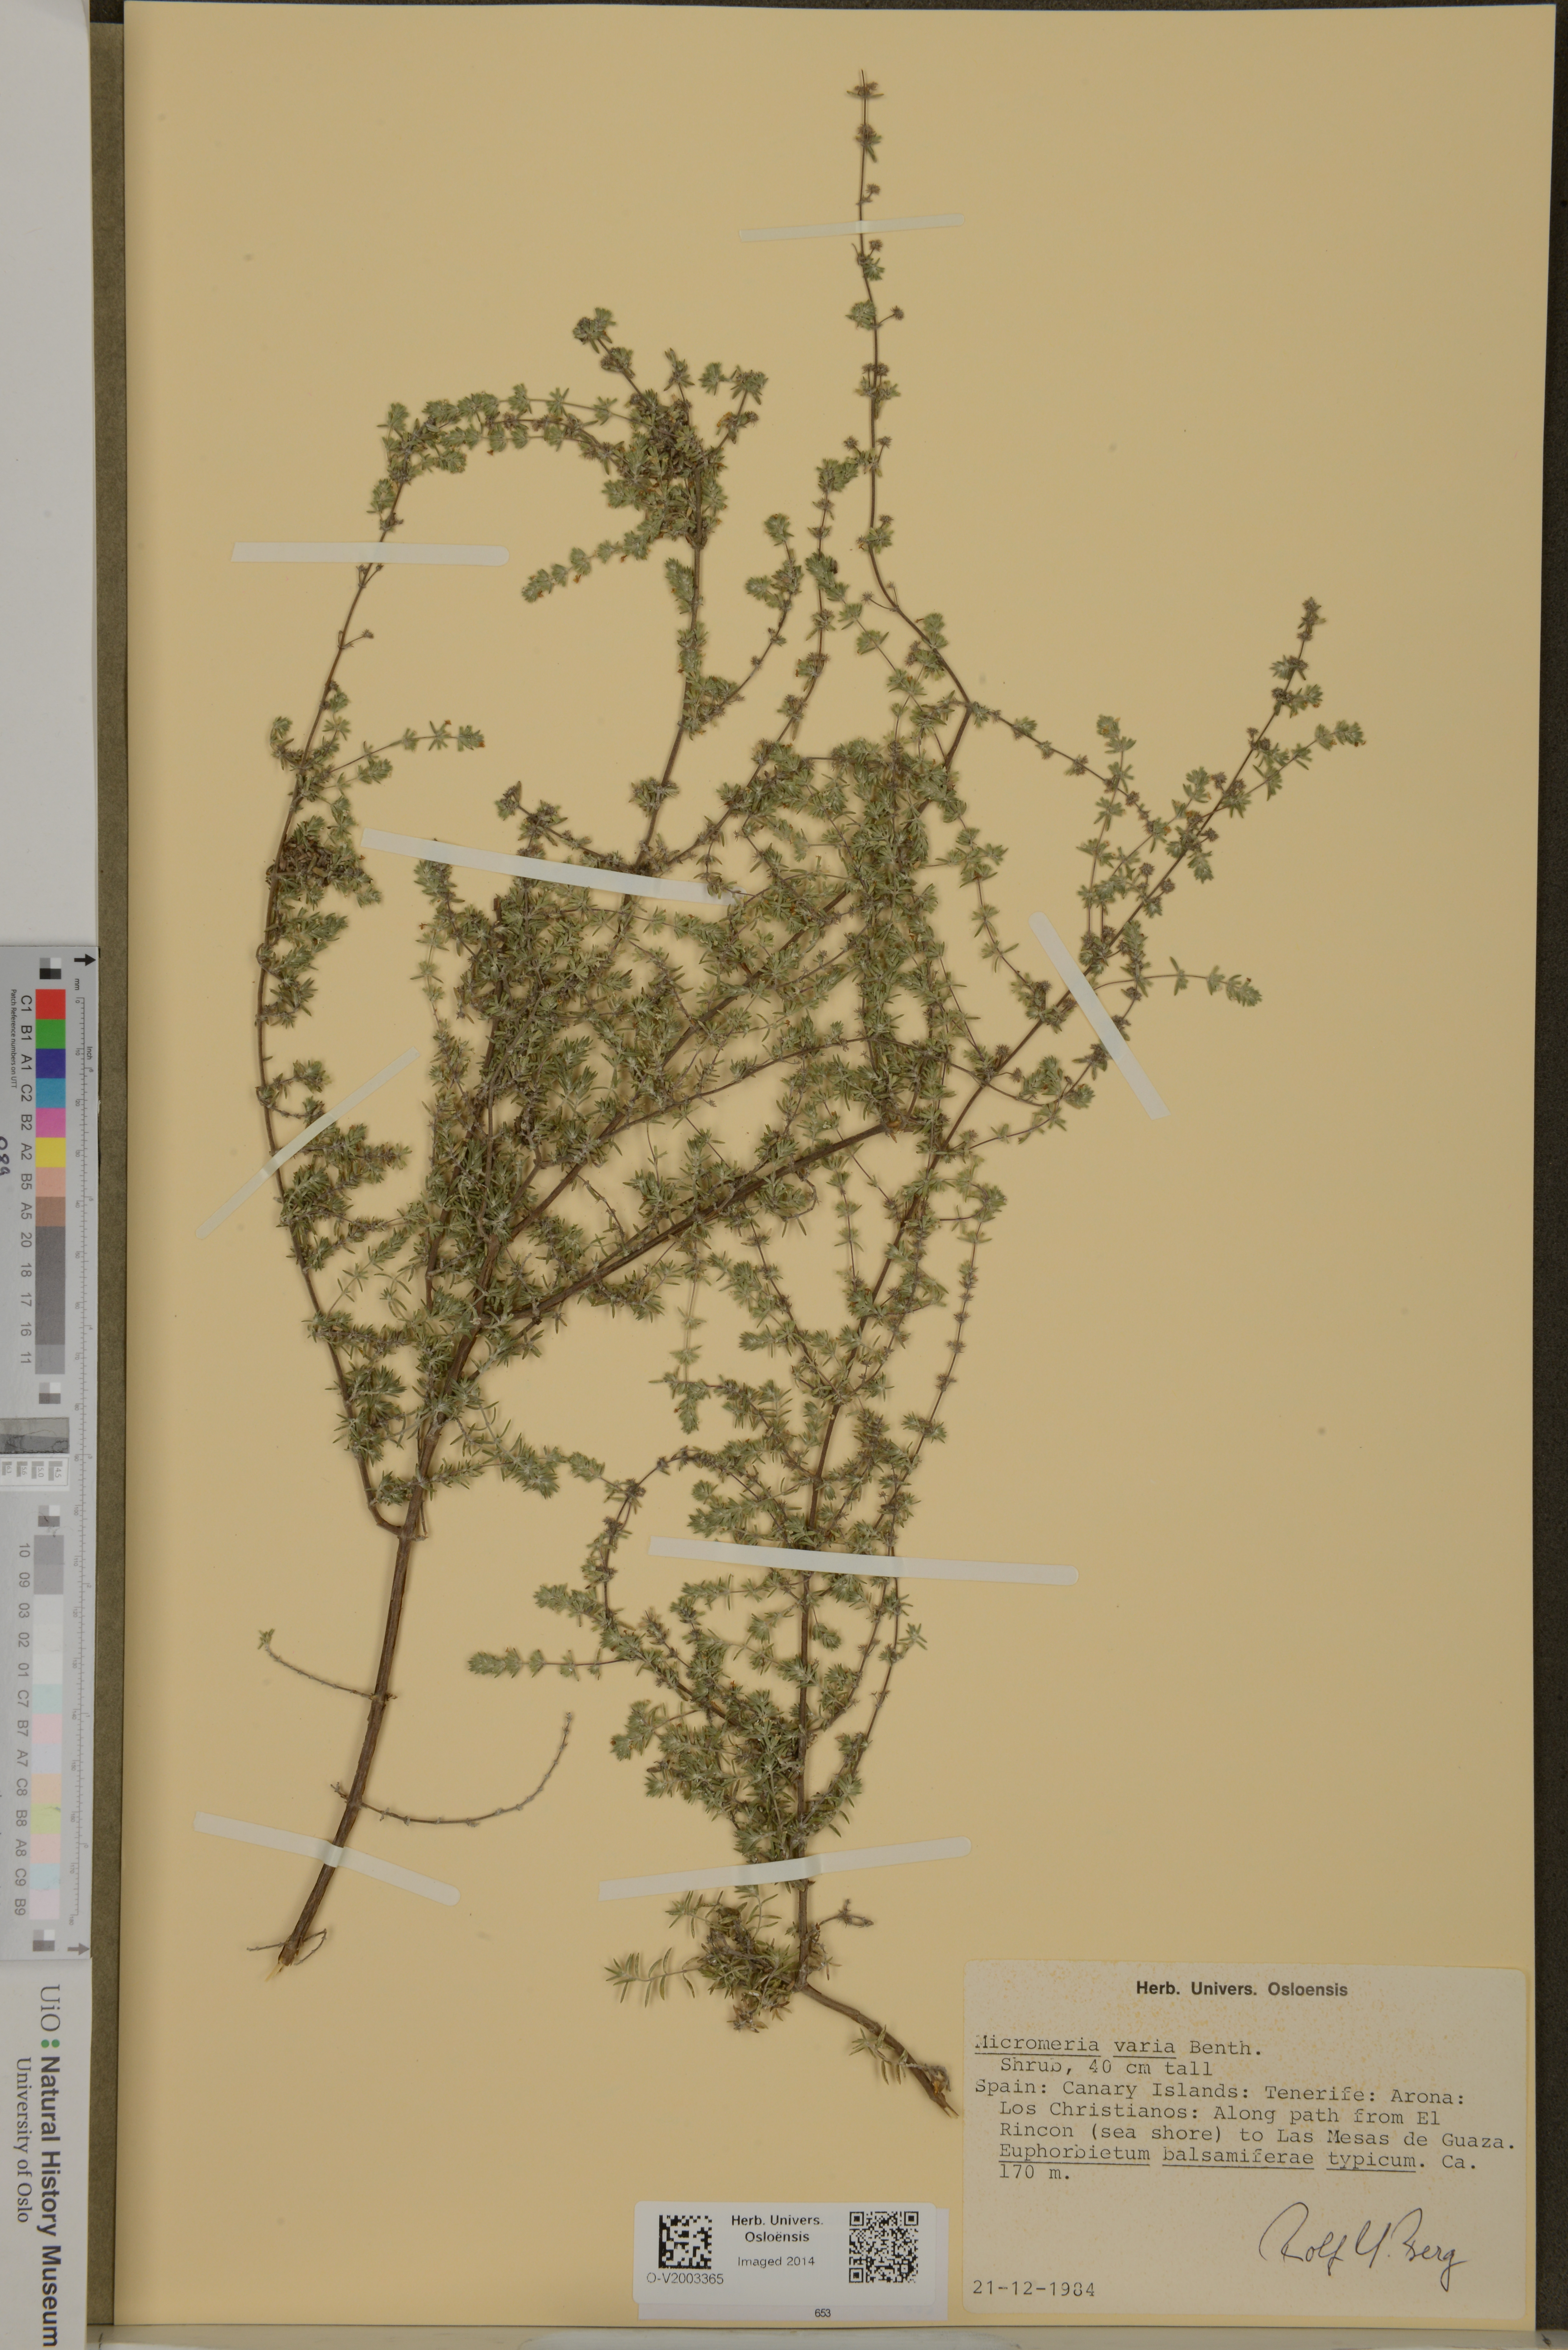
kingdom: Plantae
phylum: Tracheophyta
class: Magnoliopsida
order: Lamiales
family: Lamiaceae
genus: Micromeria
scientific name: Micromeria ericifolia
